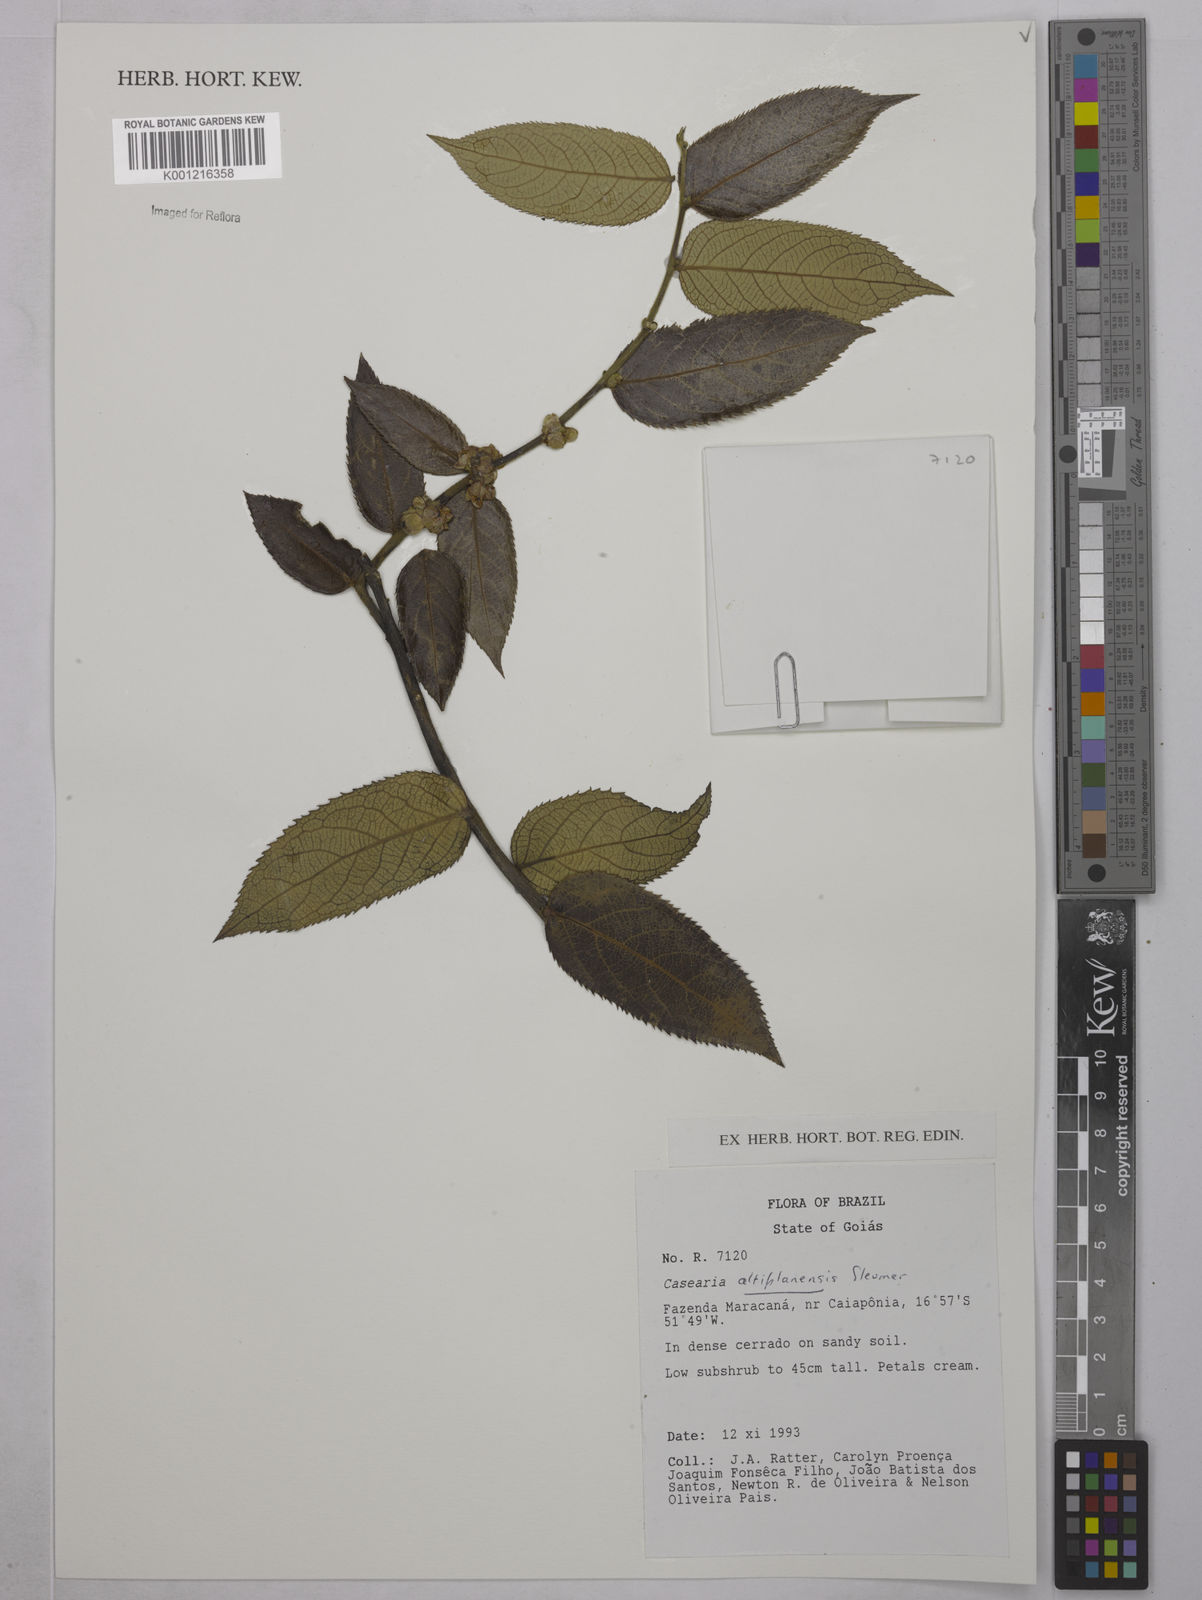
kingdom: Plantae
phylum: Tracheophyta
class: Magnoliopsida
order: Malpighiales
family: Salicaceae
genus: Casearia
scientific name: Casearia altiplanensis
